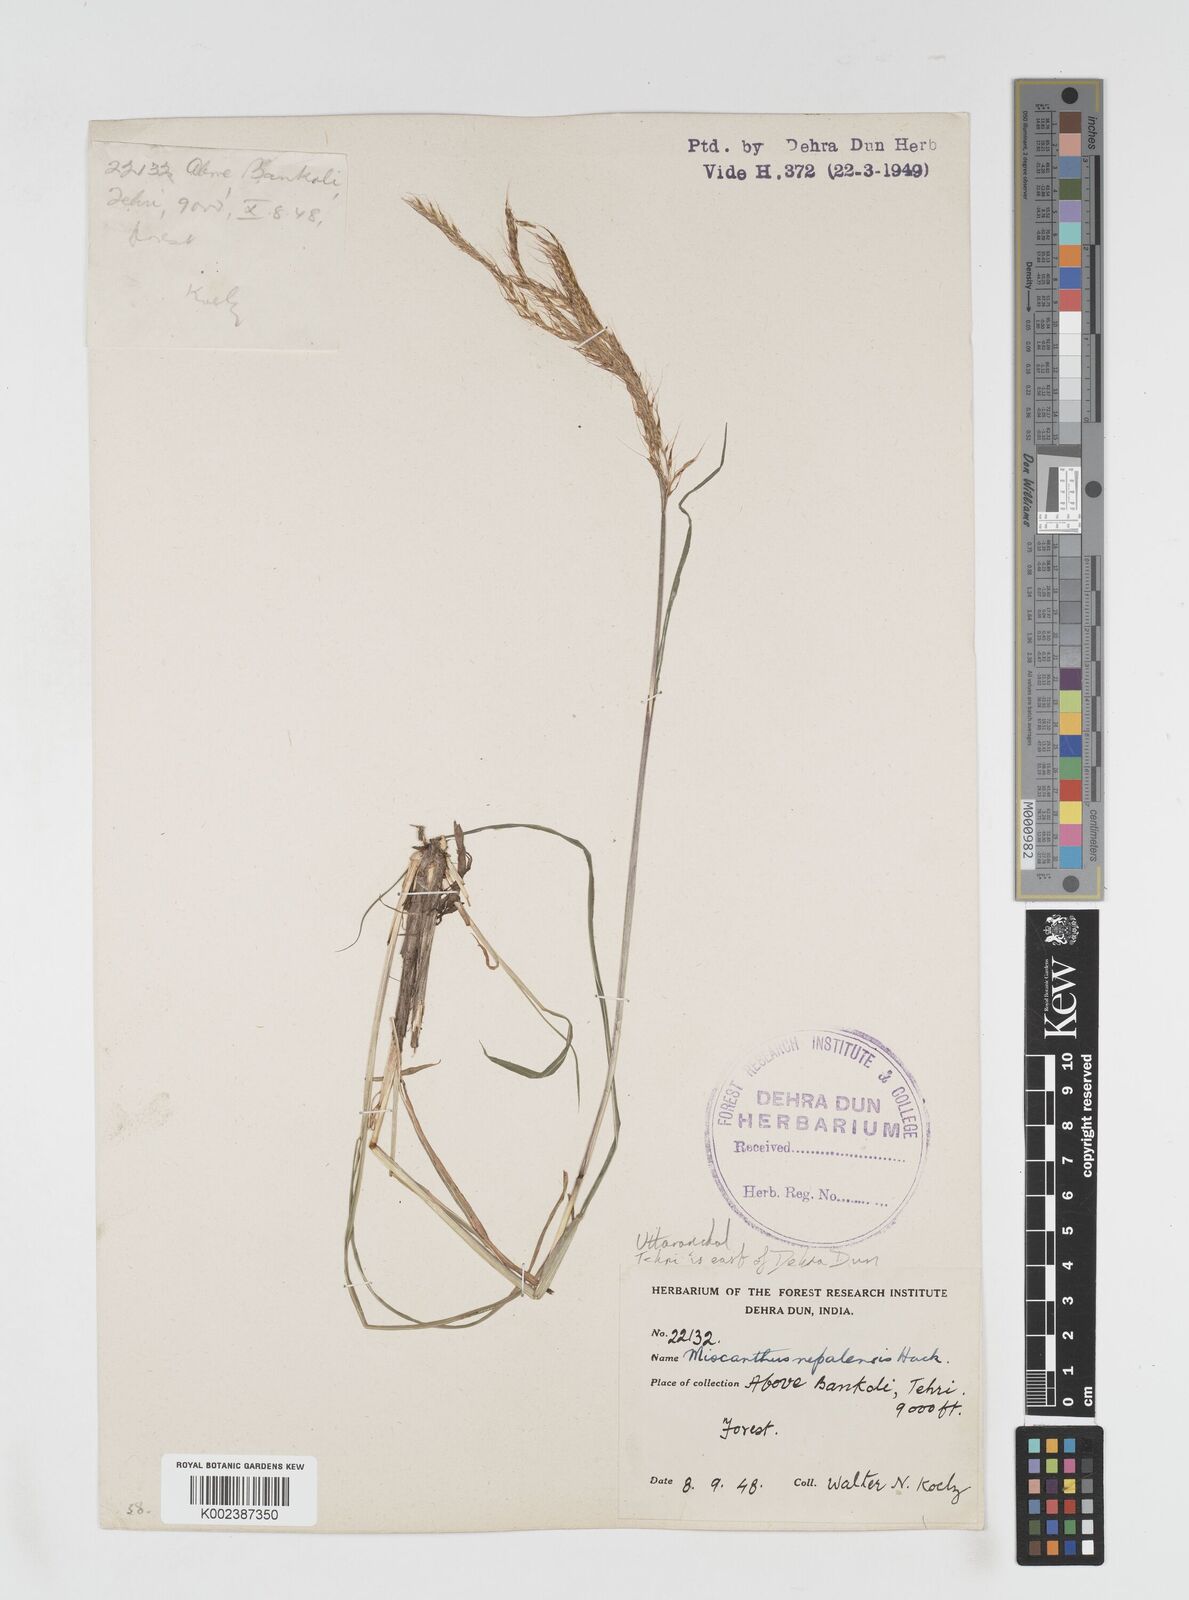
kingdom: Plantae
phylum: Tracheophyta
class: Liliopsida
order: Poales
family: Poaceae
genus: Miscanthus
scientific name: Miscanthus nepalensis
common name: Nepal silver grass
